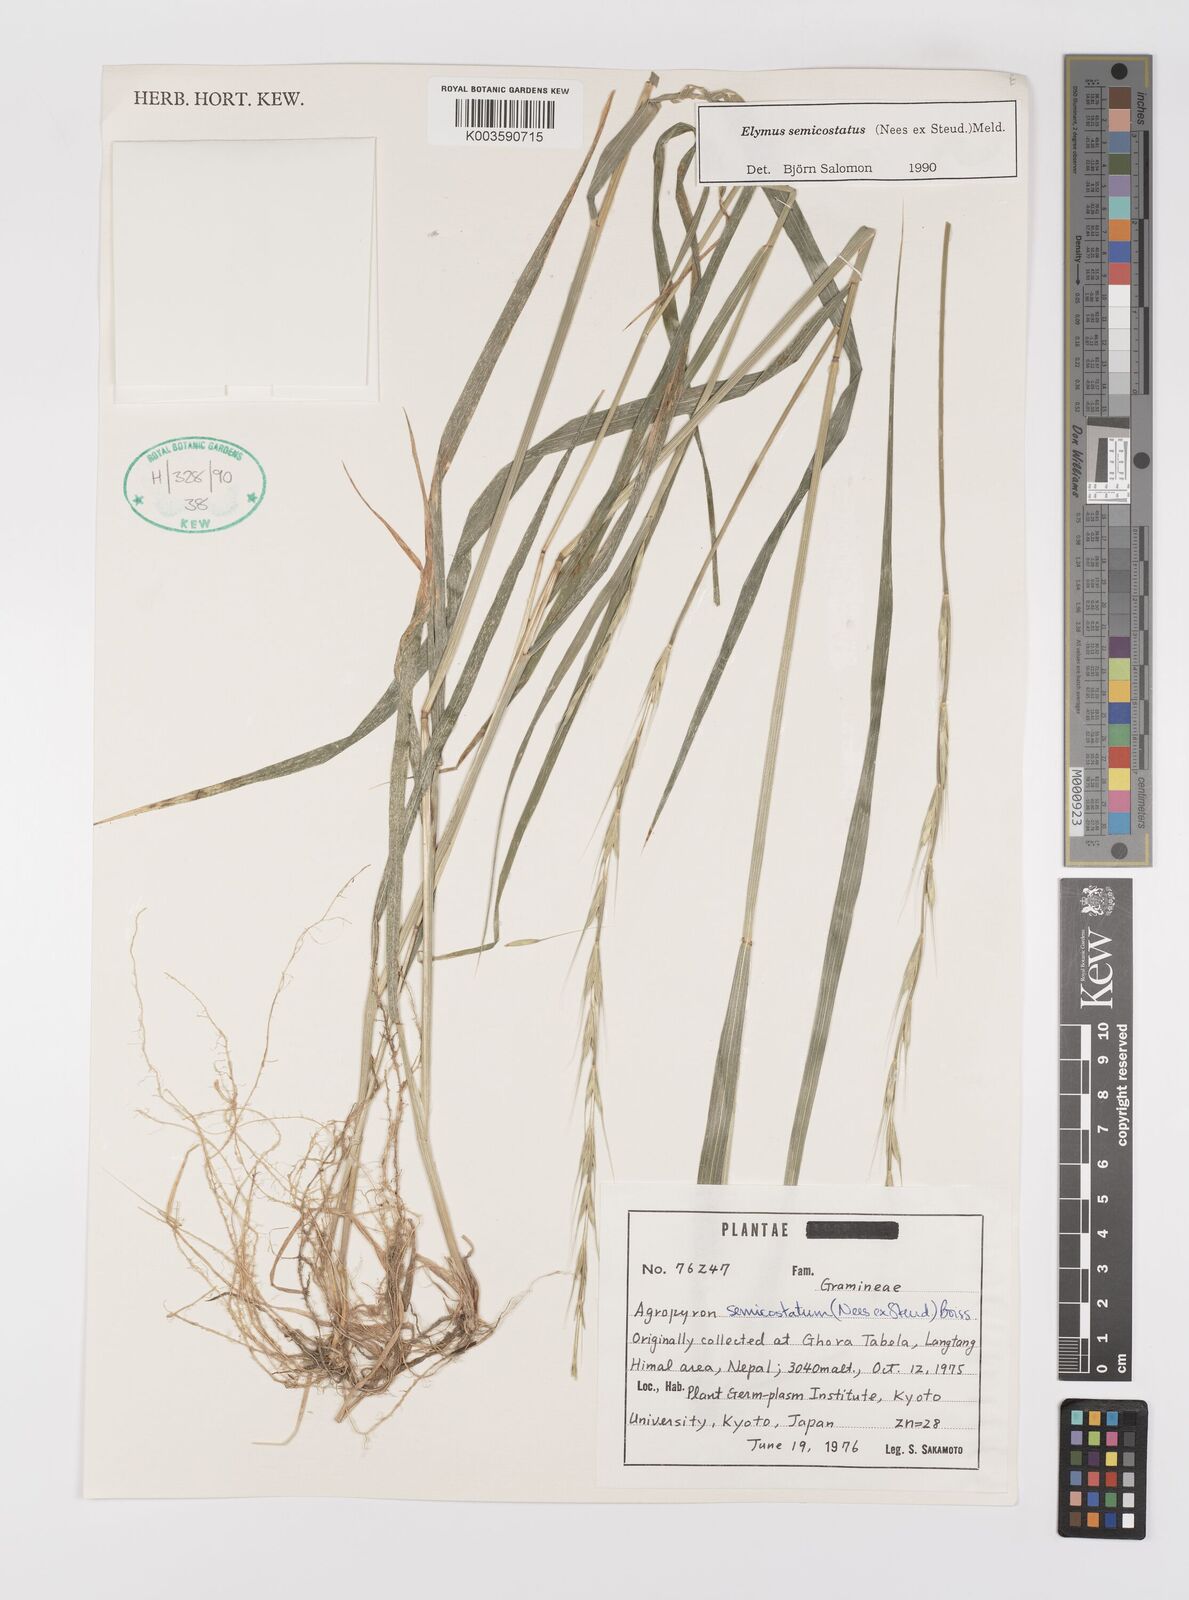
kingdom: Plantae
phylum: Tracheophyta
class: Liliopsida
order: Poales
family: Poaceae
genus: Elymus
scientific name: Elymus semicostatus
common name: Drooping wildrye
